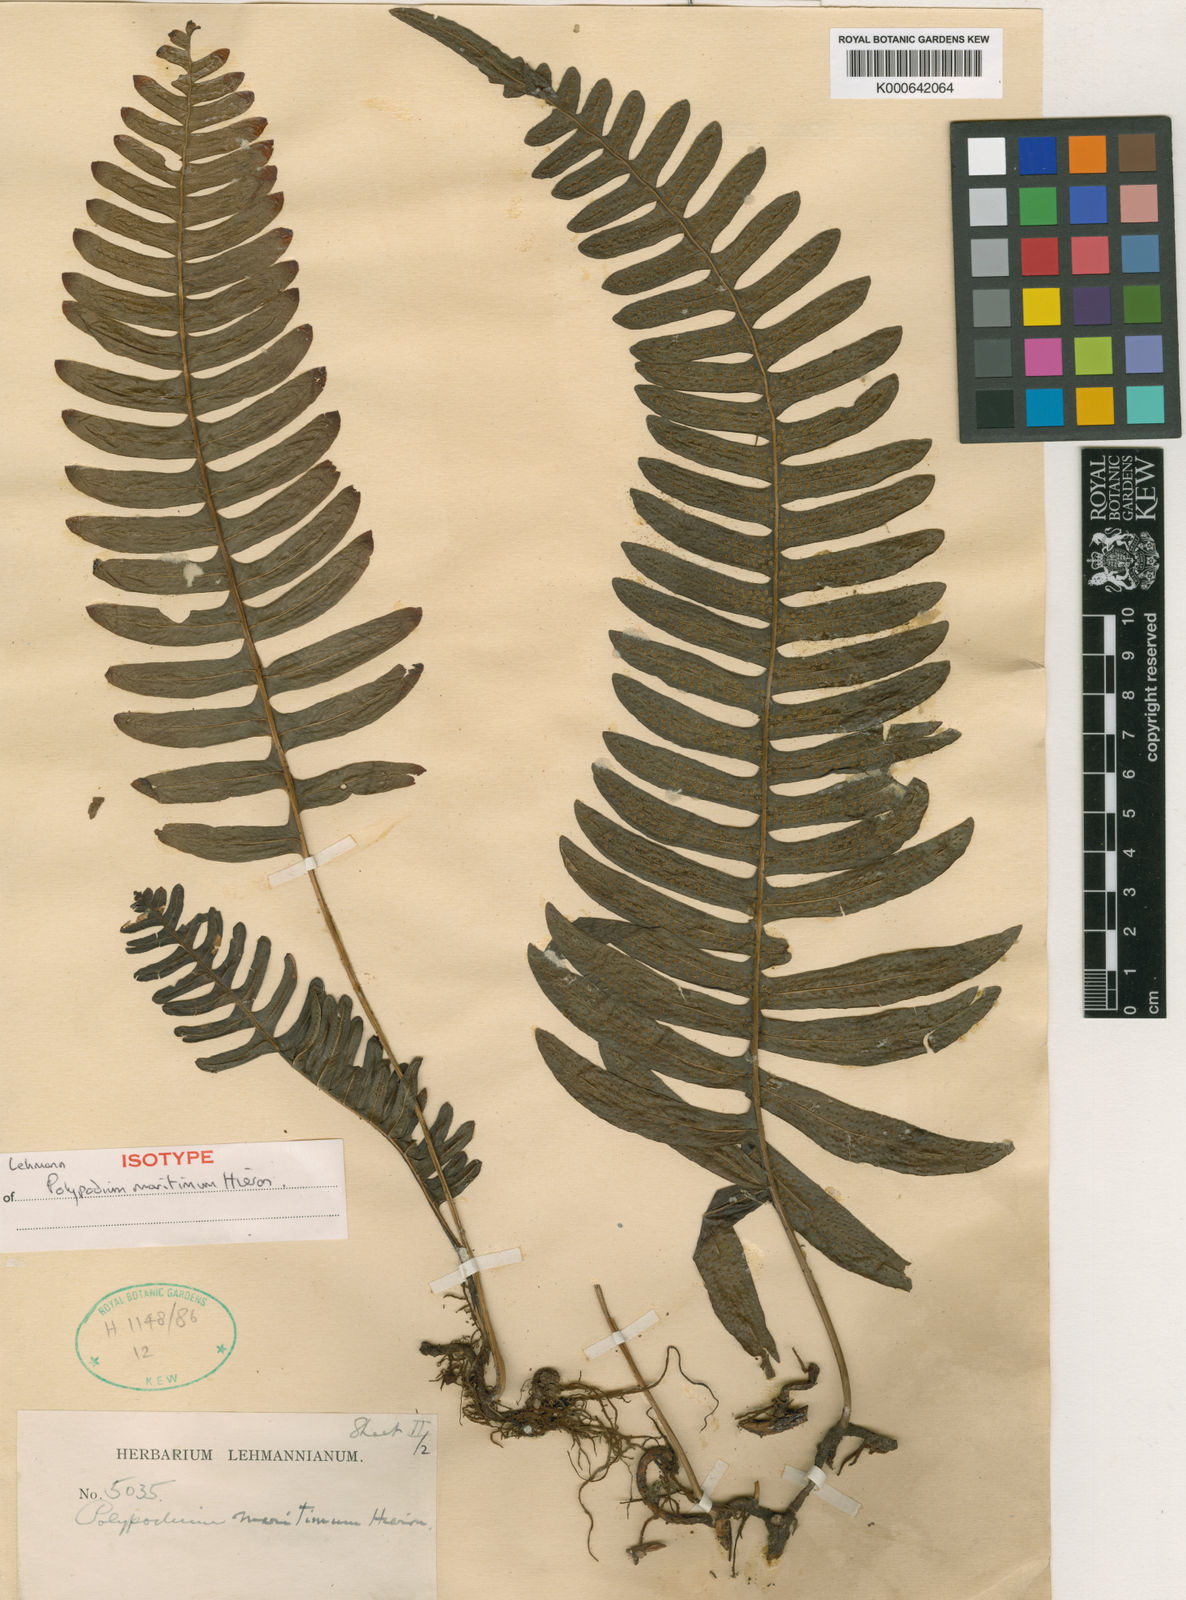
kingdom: Plantae
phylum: Tracheophyta
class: Polypodiopsida
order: Polypodiales
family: Polypodiaceae
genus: Serpocaulon
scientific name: Serpocaulon loriceum
